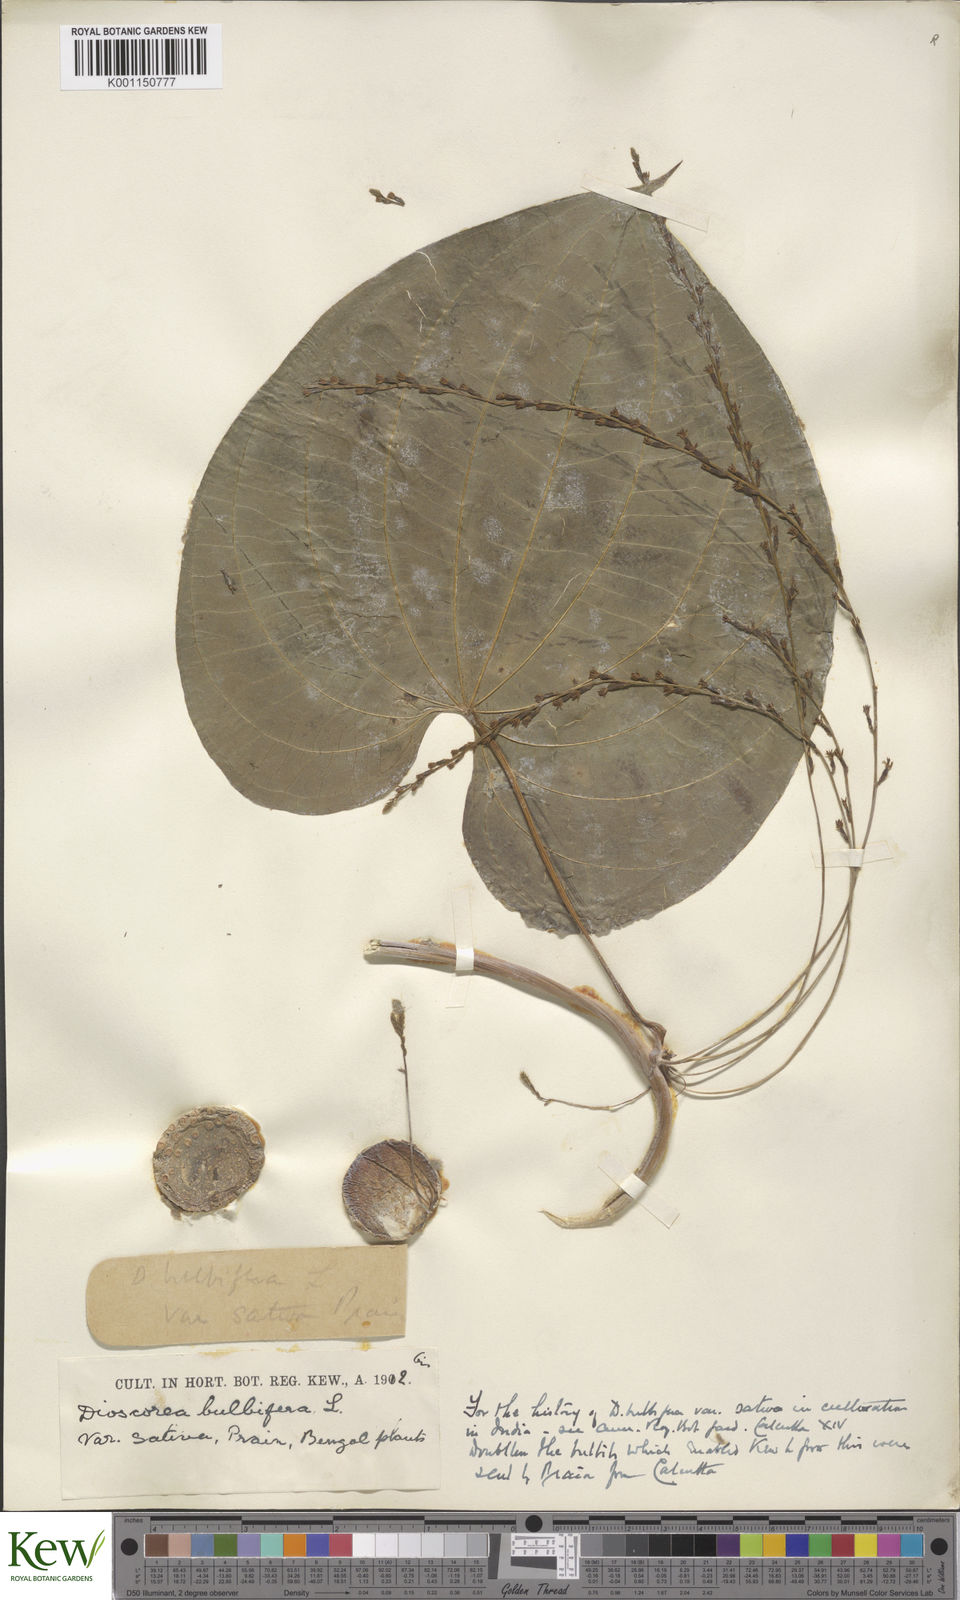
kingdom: Plantae
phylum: Tracheophyta
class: Liliopsida
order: Dioscoreales
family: Dioscoreaceae
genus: Dioscorea
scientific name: Dioscorea bulbifera
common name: Air yam
